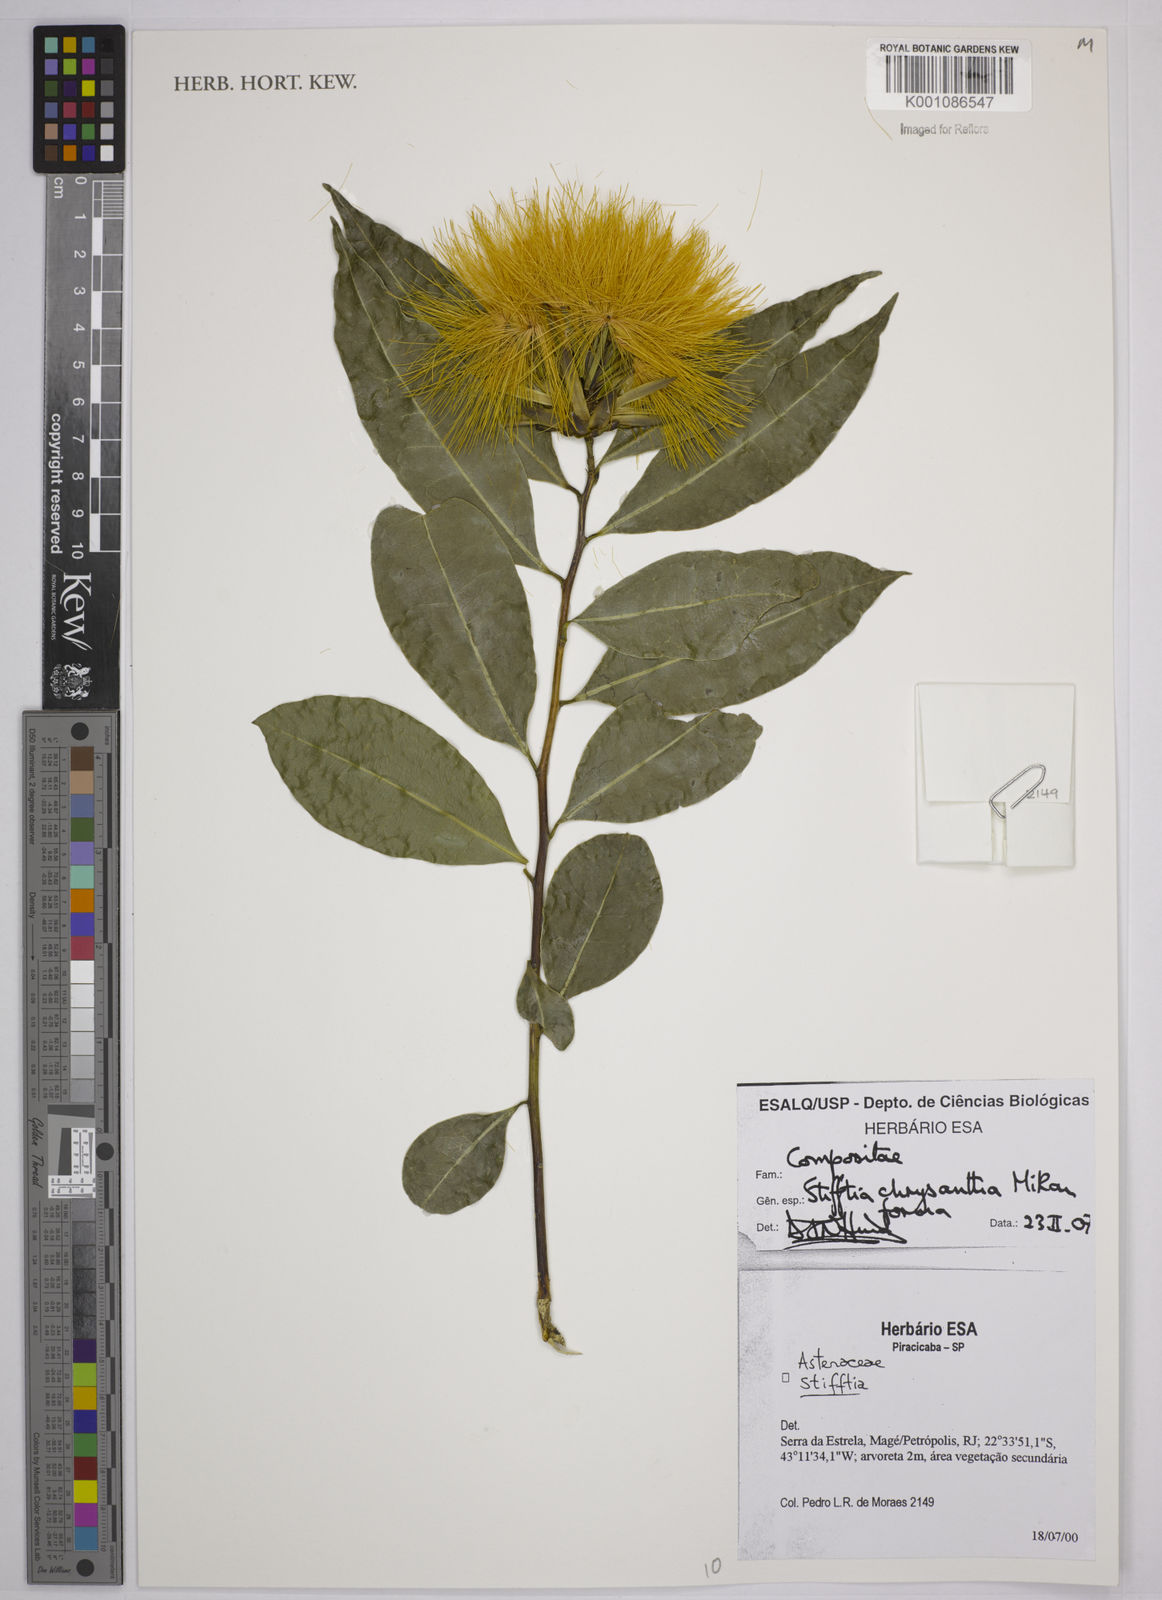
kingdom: Plantae
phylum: Tracheophyta
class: Magnoliopsida
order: Asterales
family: Asteraceae
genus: Stifftia
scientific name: Stifftia chrysantha
